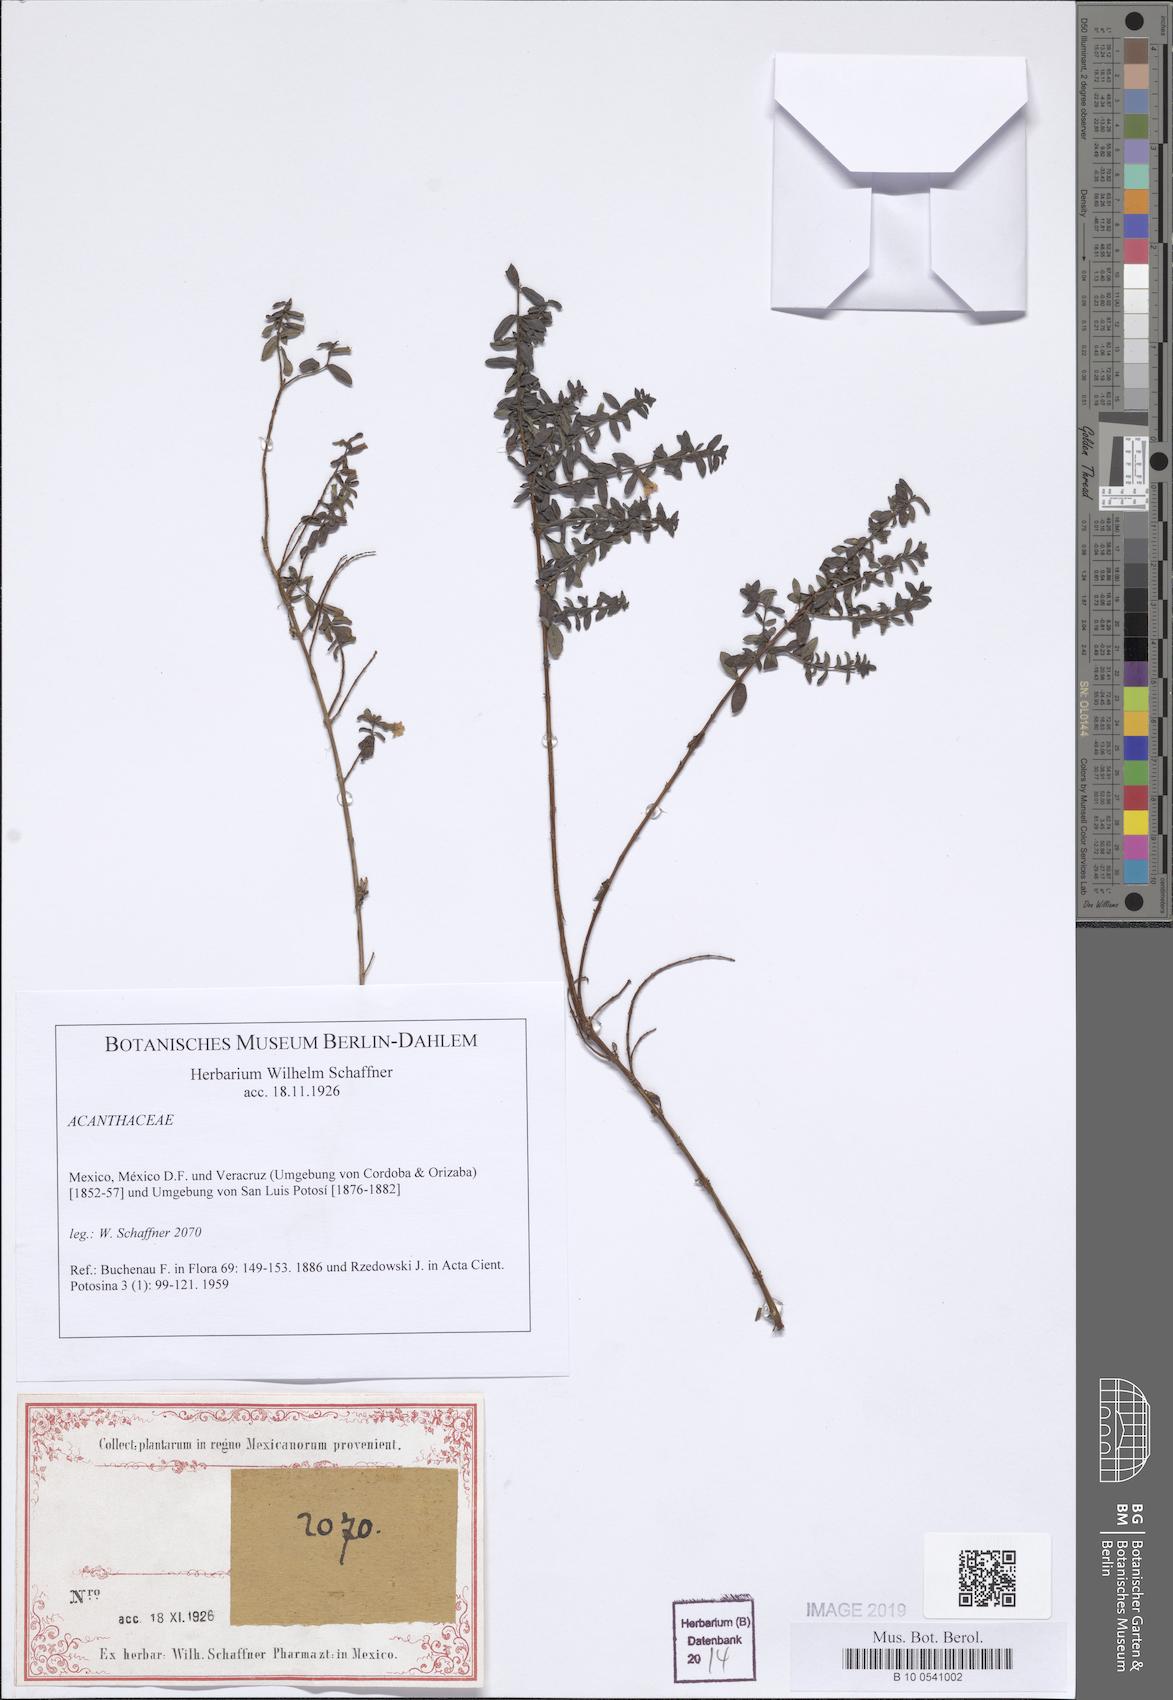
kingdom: Plantae
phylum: Tracheophyta
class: Magnoliopsida
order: Lamiales
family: Acanthaceae
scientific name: Acanthaceae
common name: Acanthaceae
